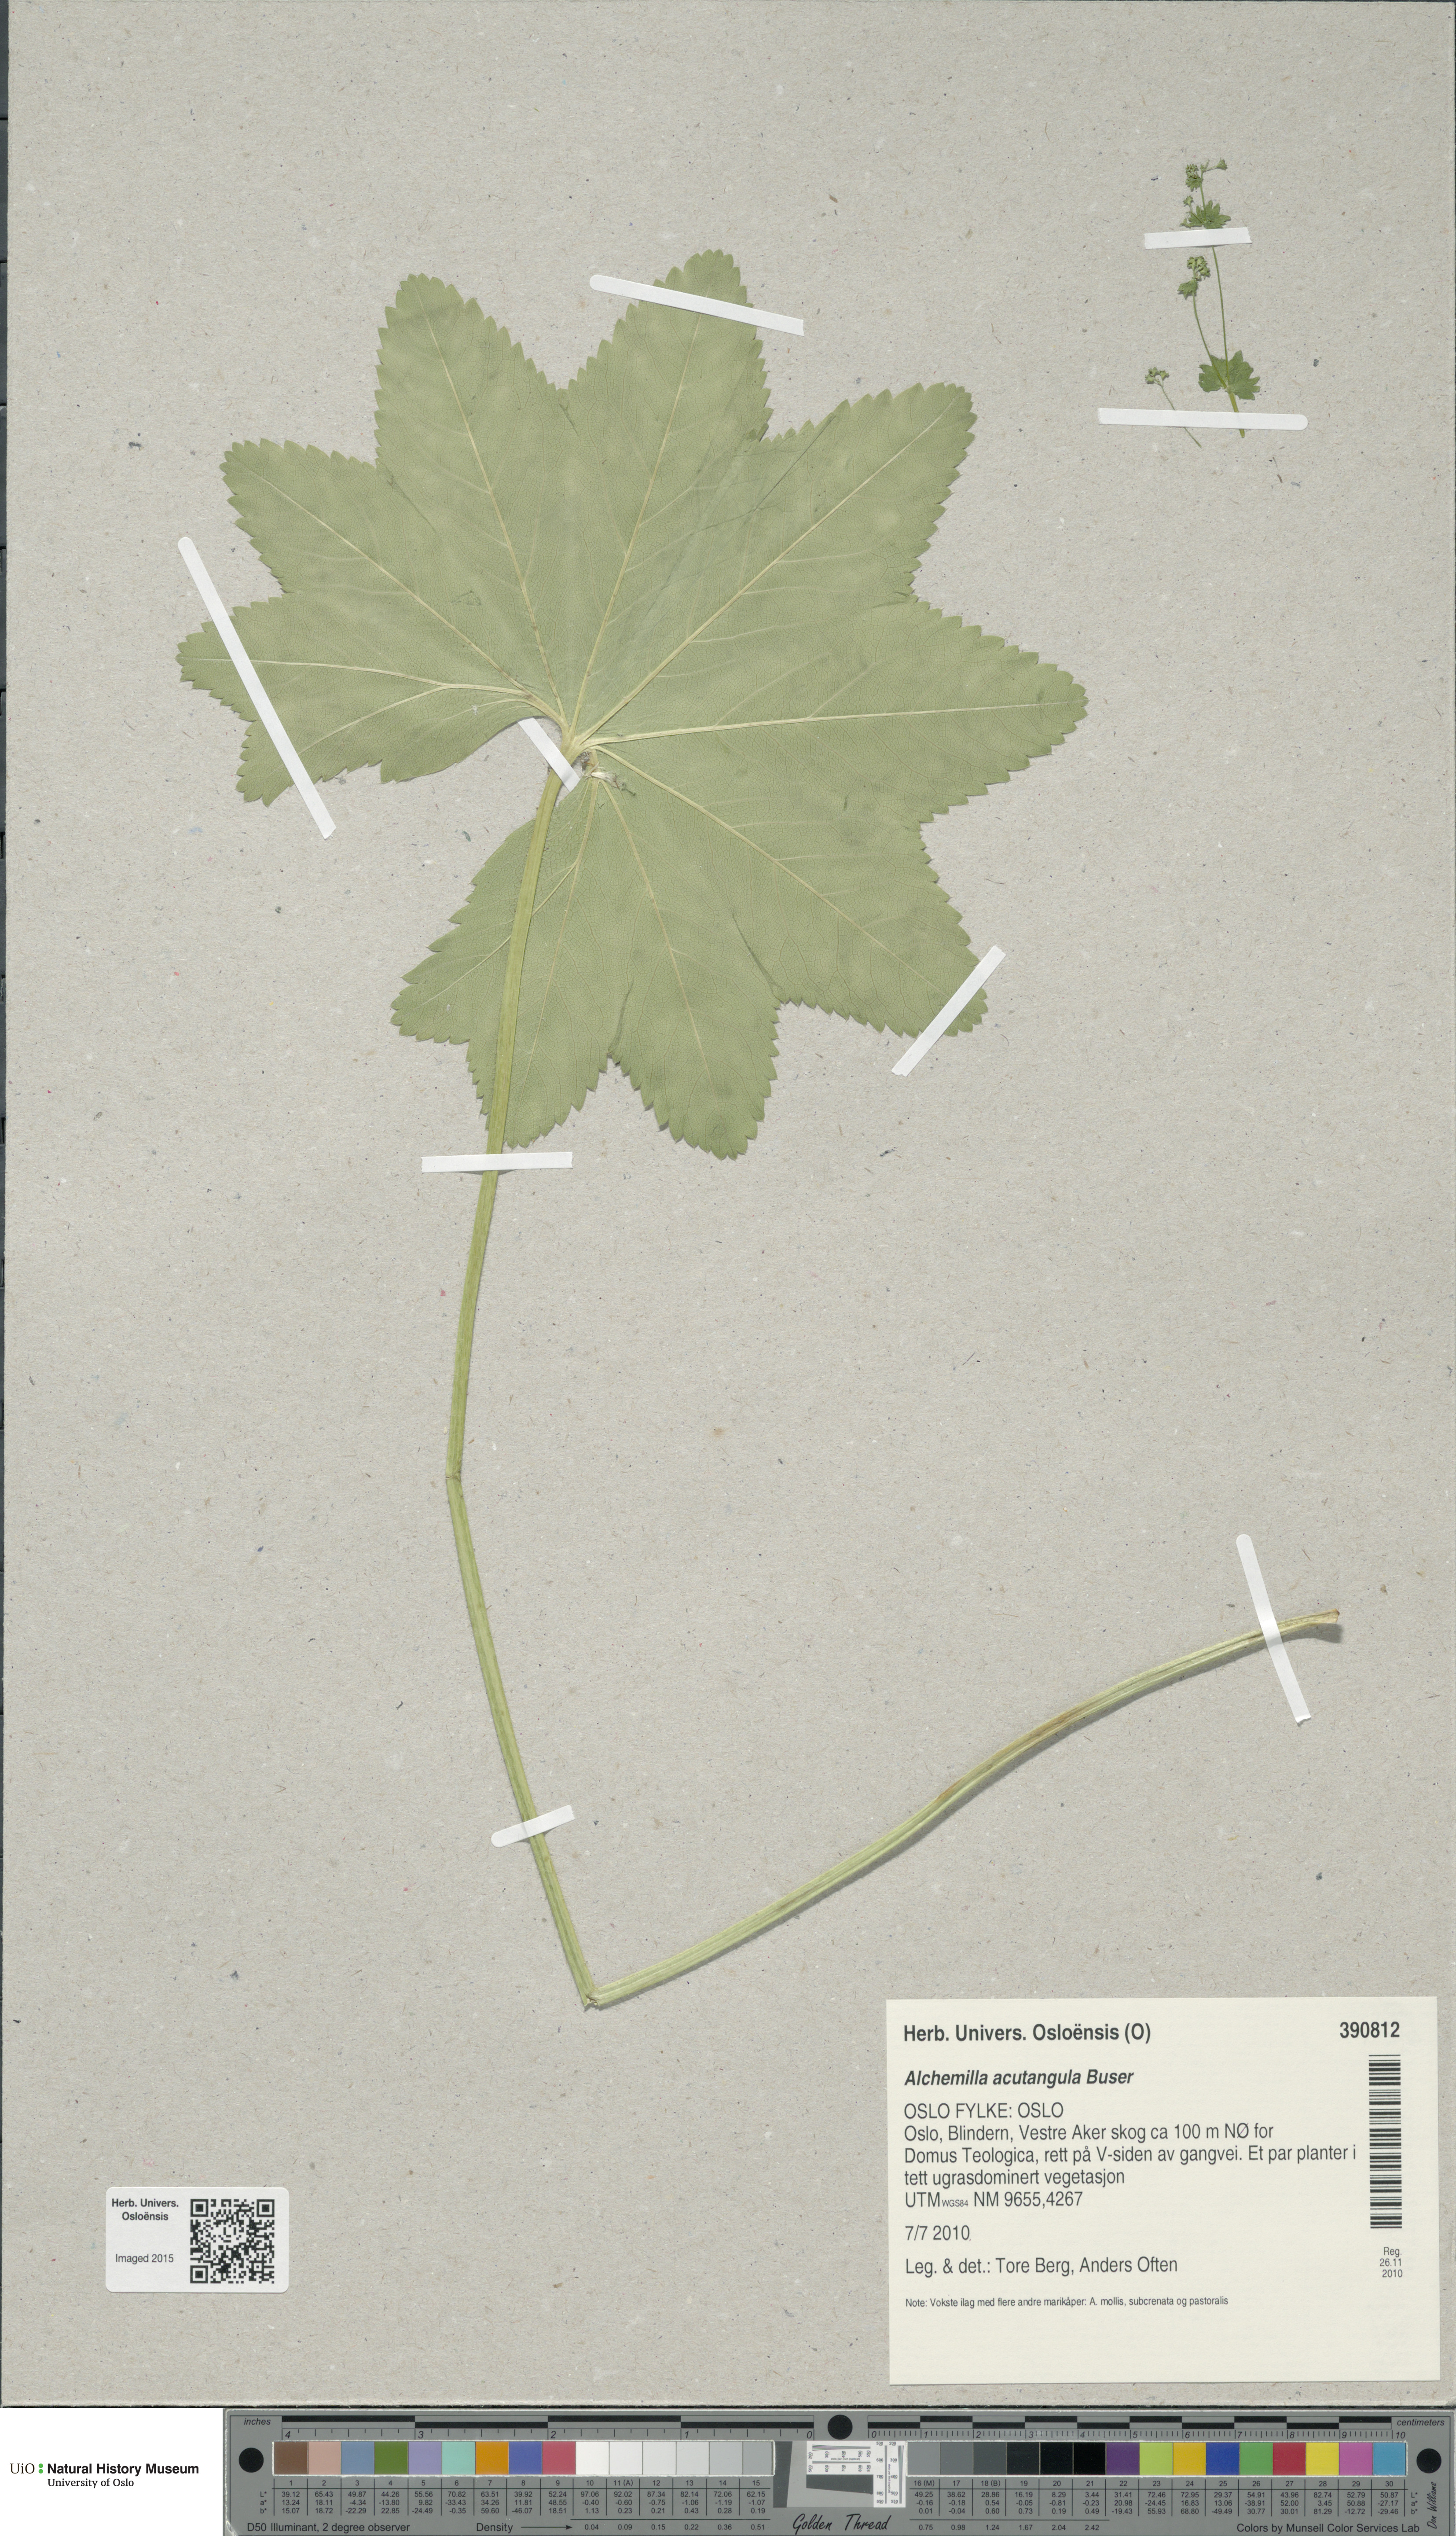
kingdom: Plantae
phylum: Tracheophyta
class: Magnoliopsida
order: Rosales
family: Rosaceae
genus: Alchemilla
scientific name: Alchemilla vulgaris
